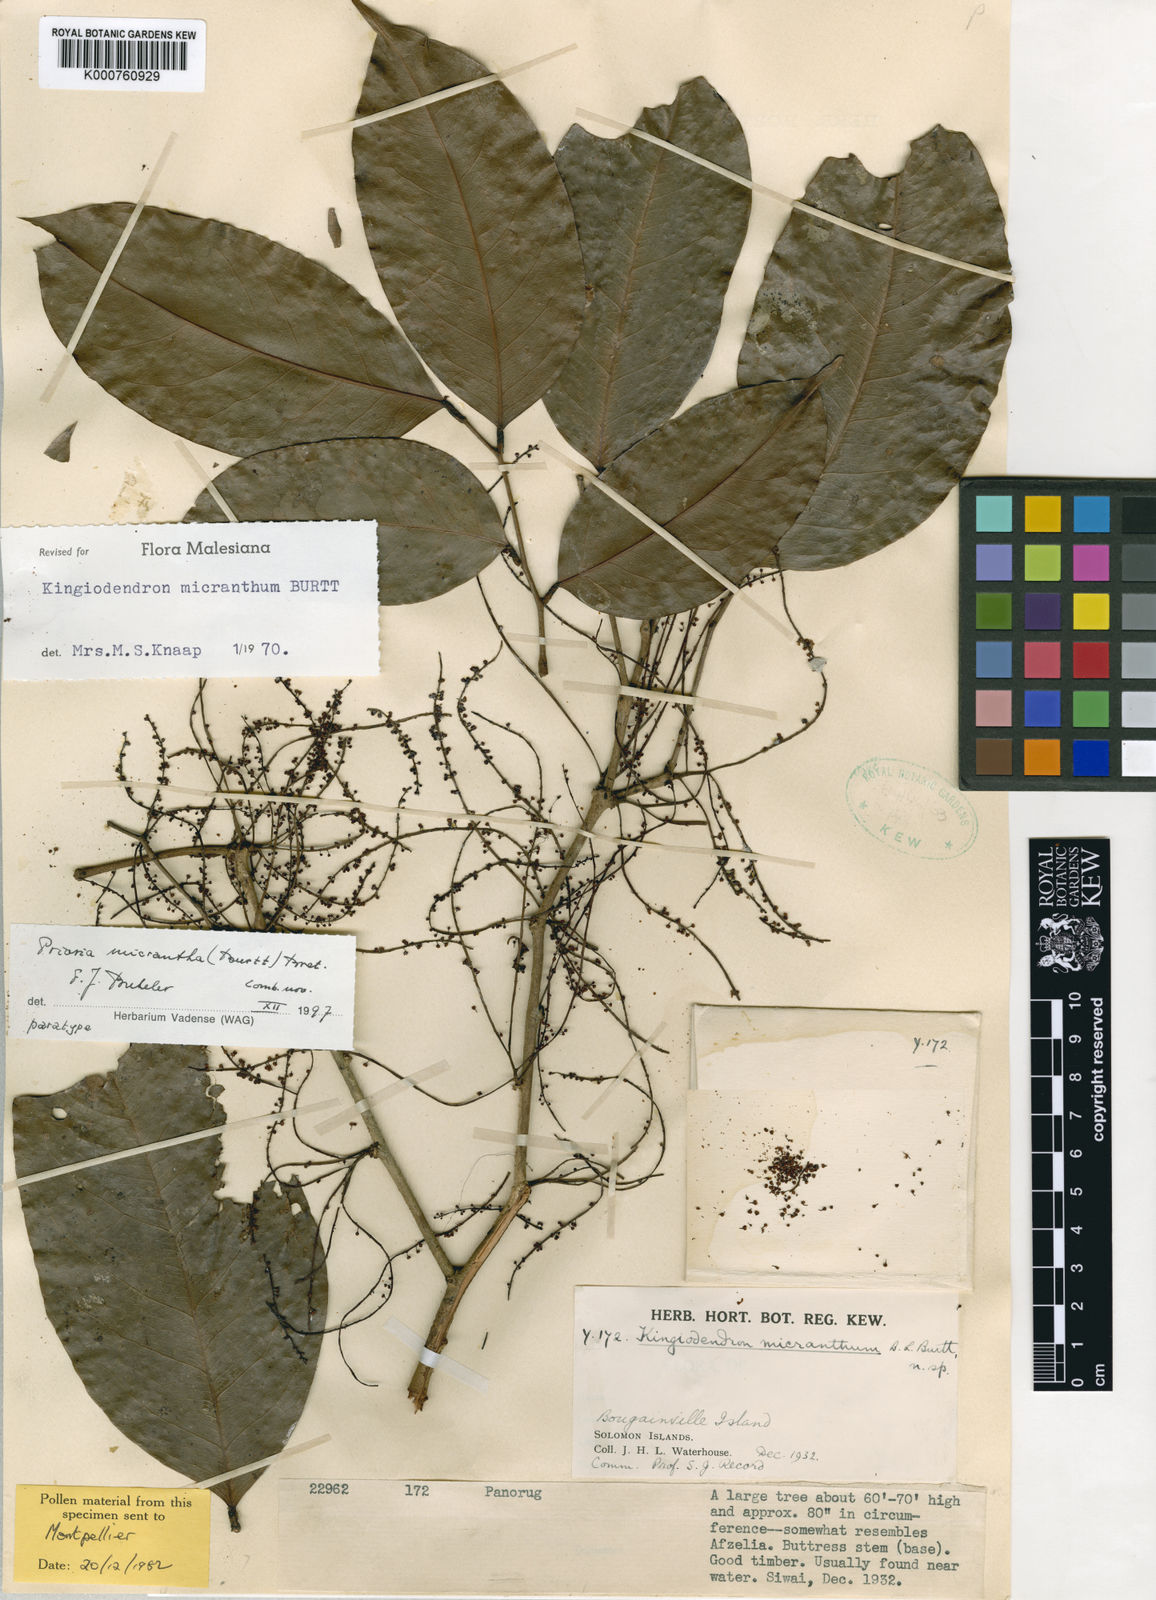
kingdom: Plantae
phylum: Tracheophyta
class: Magnoliopsida
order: Fabales
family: Fabaceae
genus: Prioria
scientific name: Prioria alternifolia
